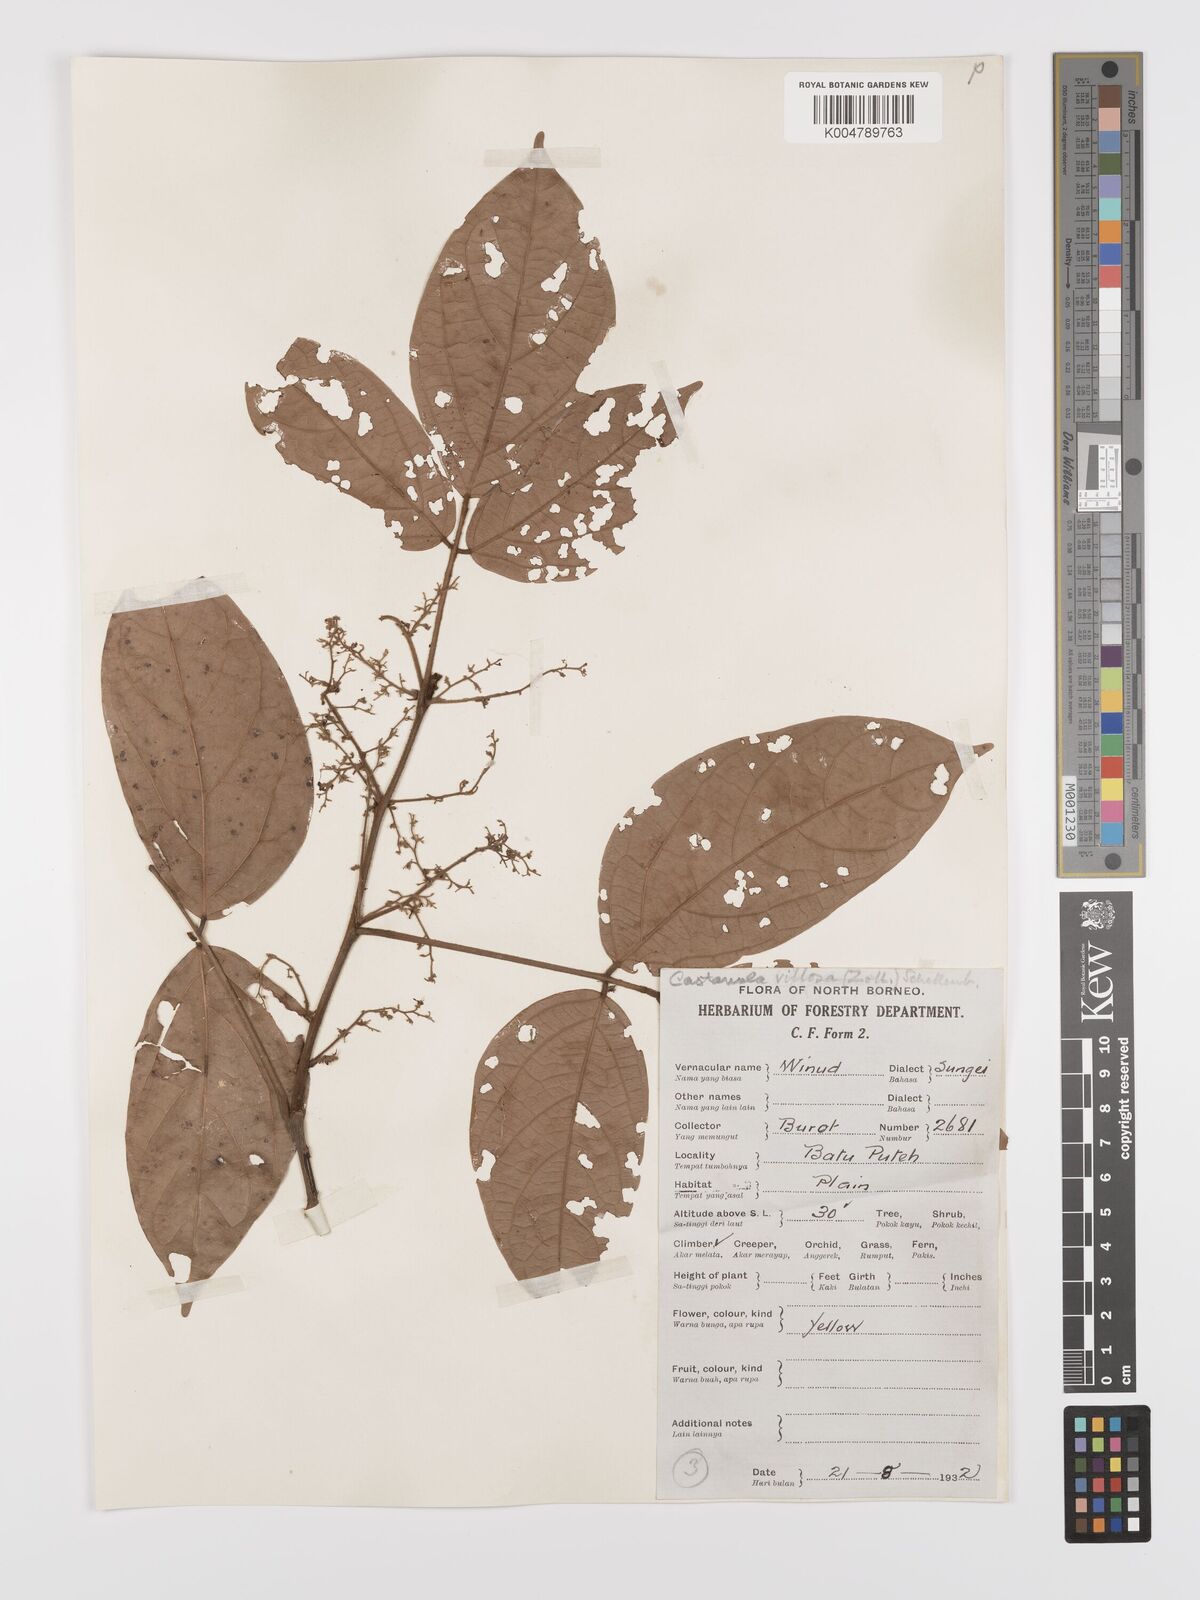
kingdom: Plantae
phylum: Tracheophyta
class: Magnoliopsida
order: Oxalidales
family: Connaraceae
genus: Agelaea
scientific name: Agelaea borneensis
